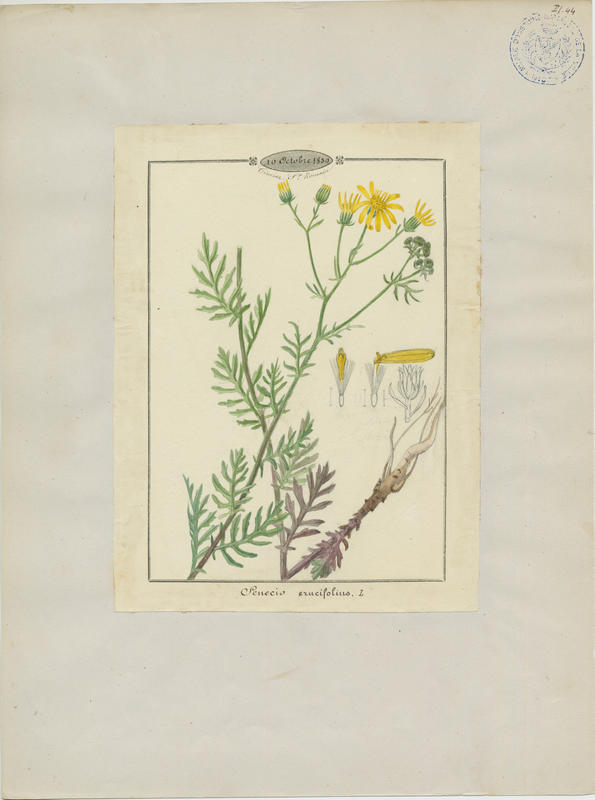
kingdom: Plantae
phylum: Tracheophyta
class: Magnoliopsida
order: Asterales
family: Asteraceae
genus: Jacobaea
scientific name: Jacobaea erucifolia
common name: Hoary ragwort
